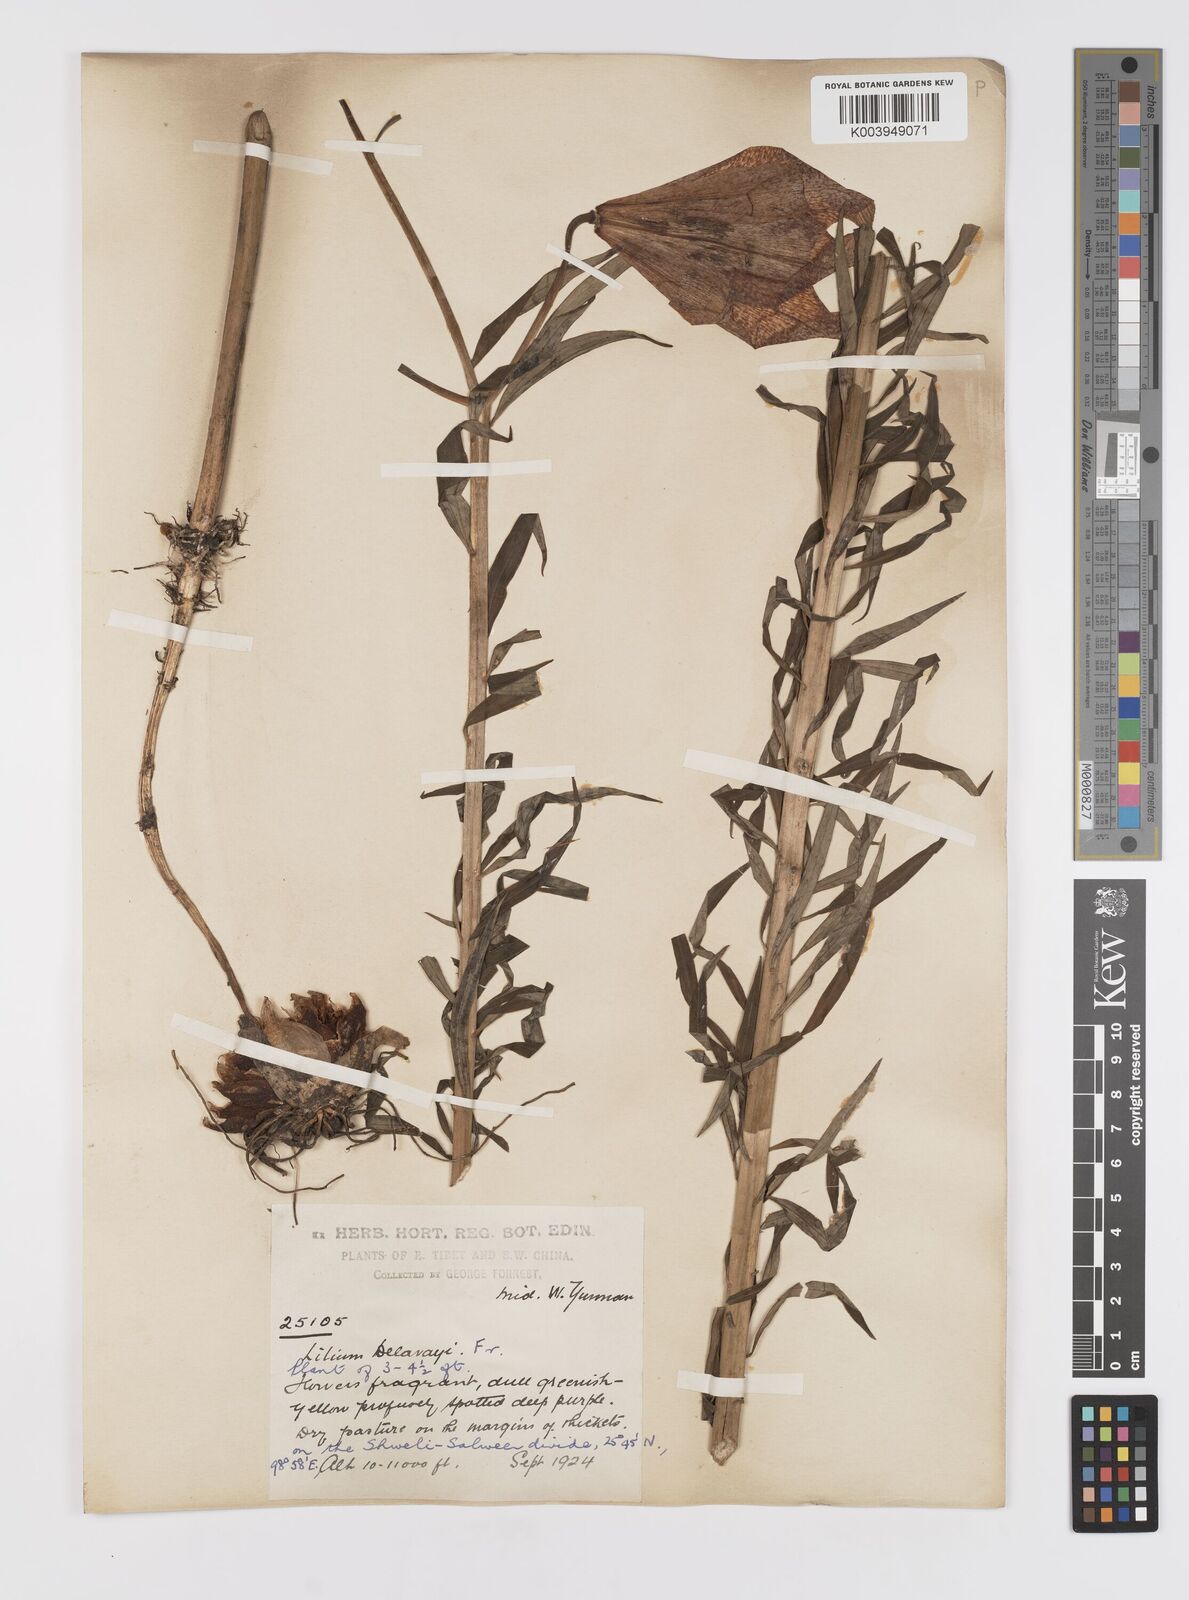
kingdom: Plantae
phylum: Tracheophyta
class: Liliopsida
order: Liliales
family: Liliaceae
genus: Lilium
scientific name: Lilium bakerianum
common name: Baker's lily
